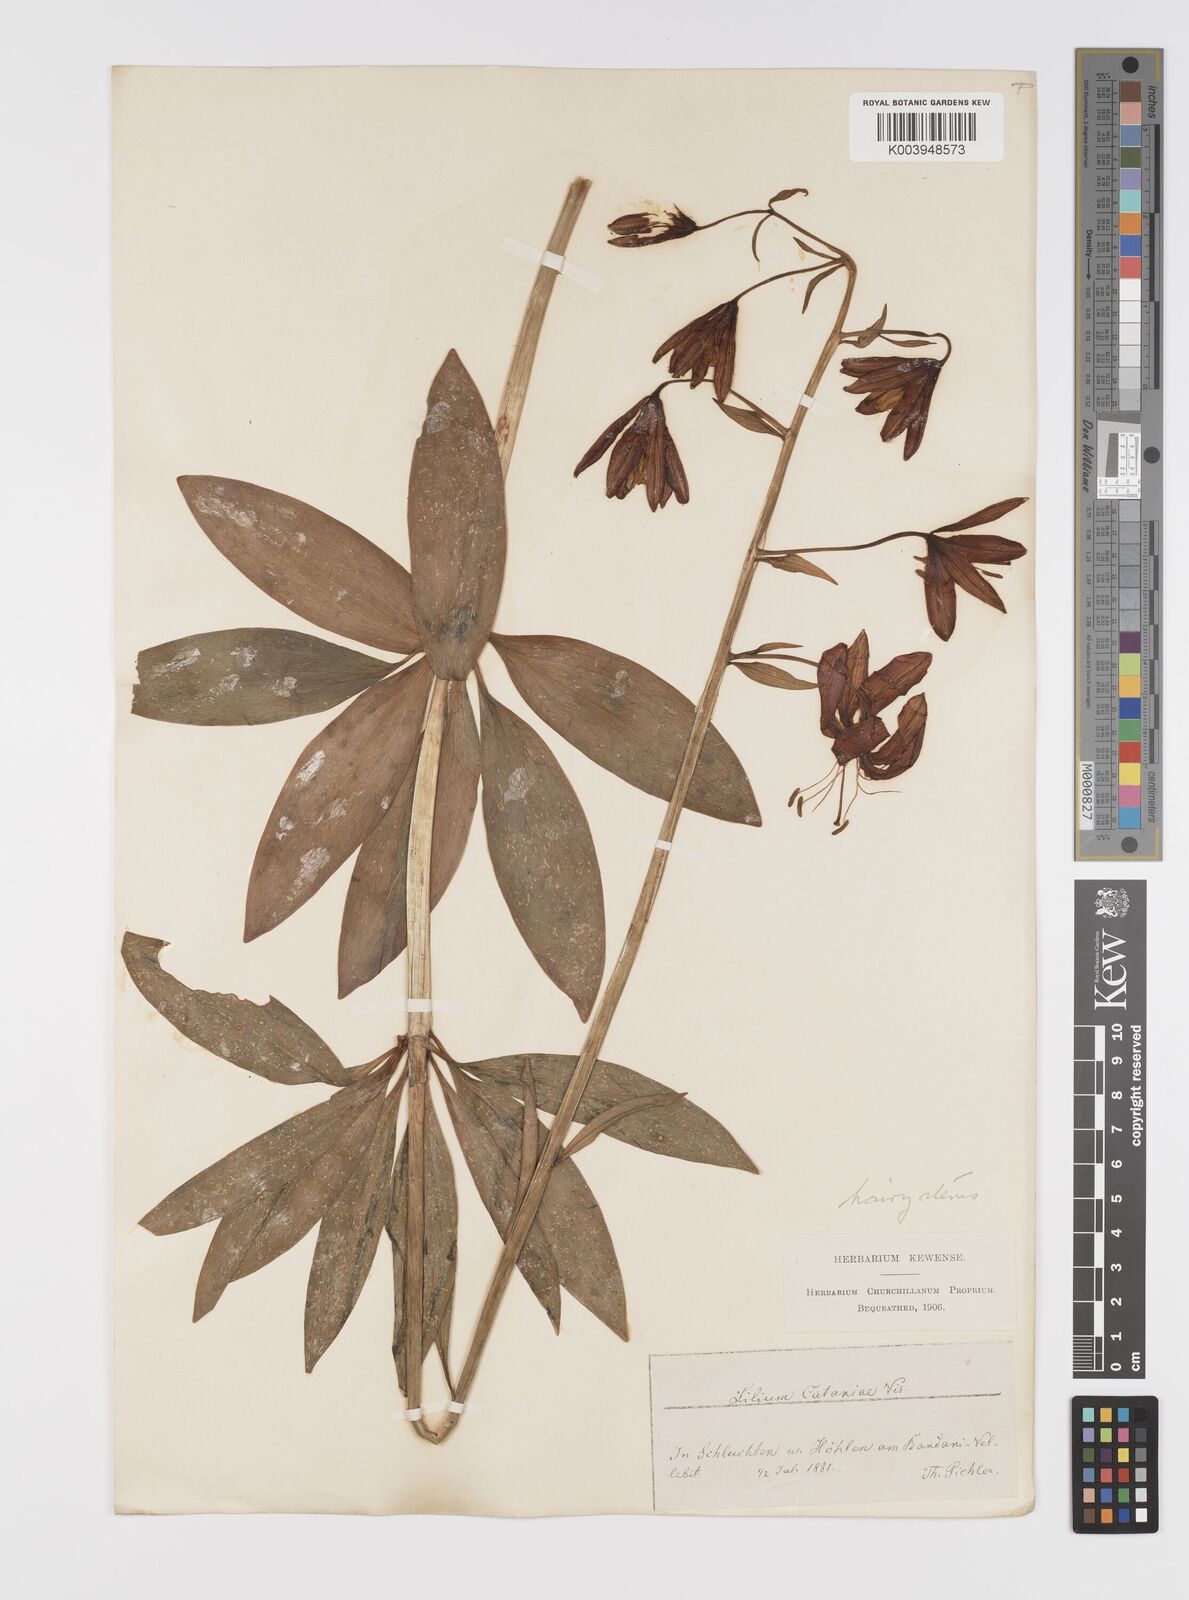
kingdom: Plantae
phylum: Tracheophyta
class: Liliopsida
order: Liliales
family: Liliaceae
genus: Lilium
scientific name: Lilium martagon
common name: Martagon lily
